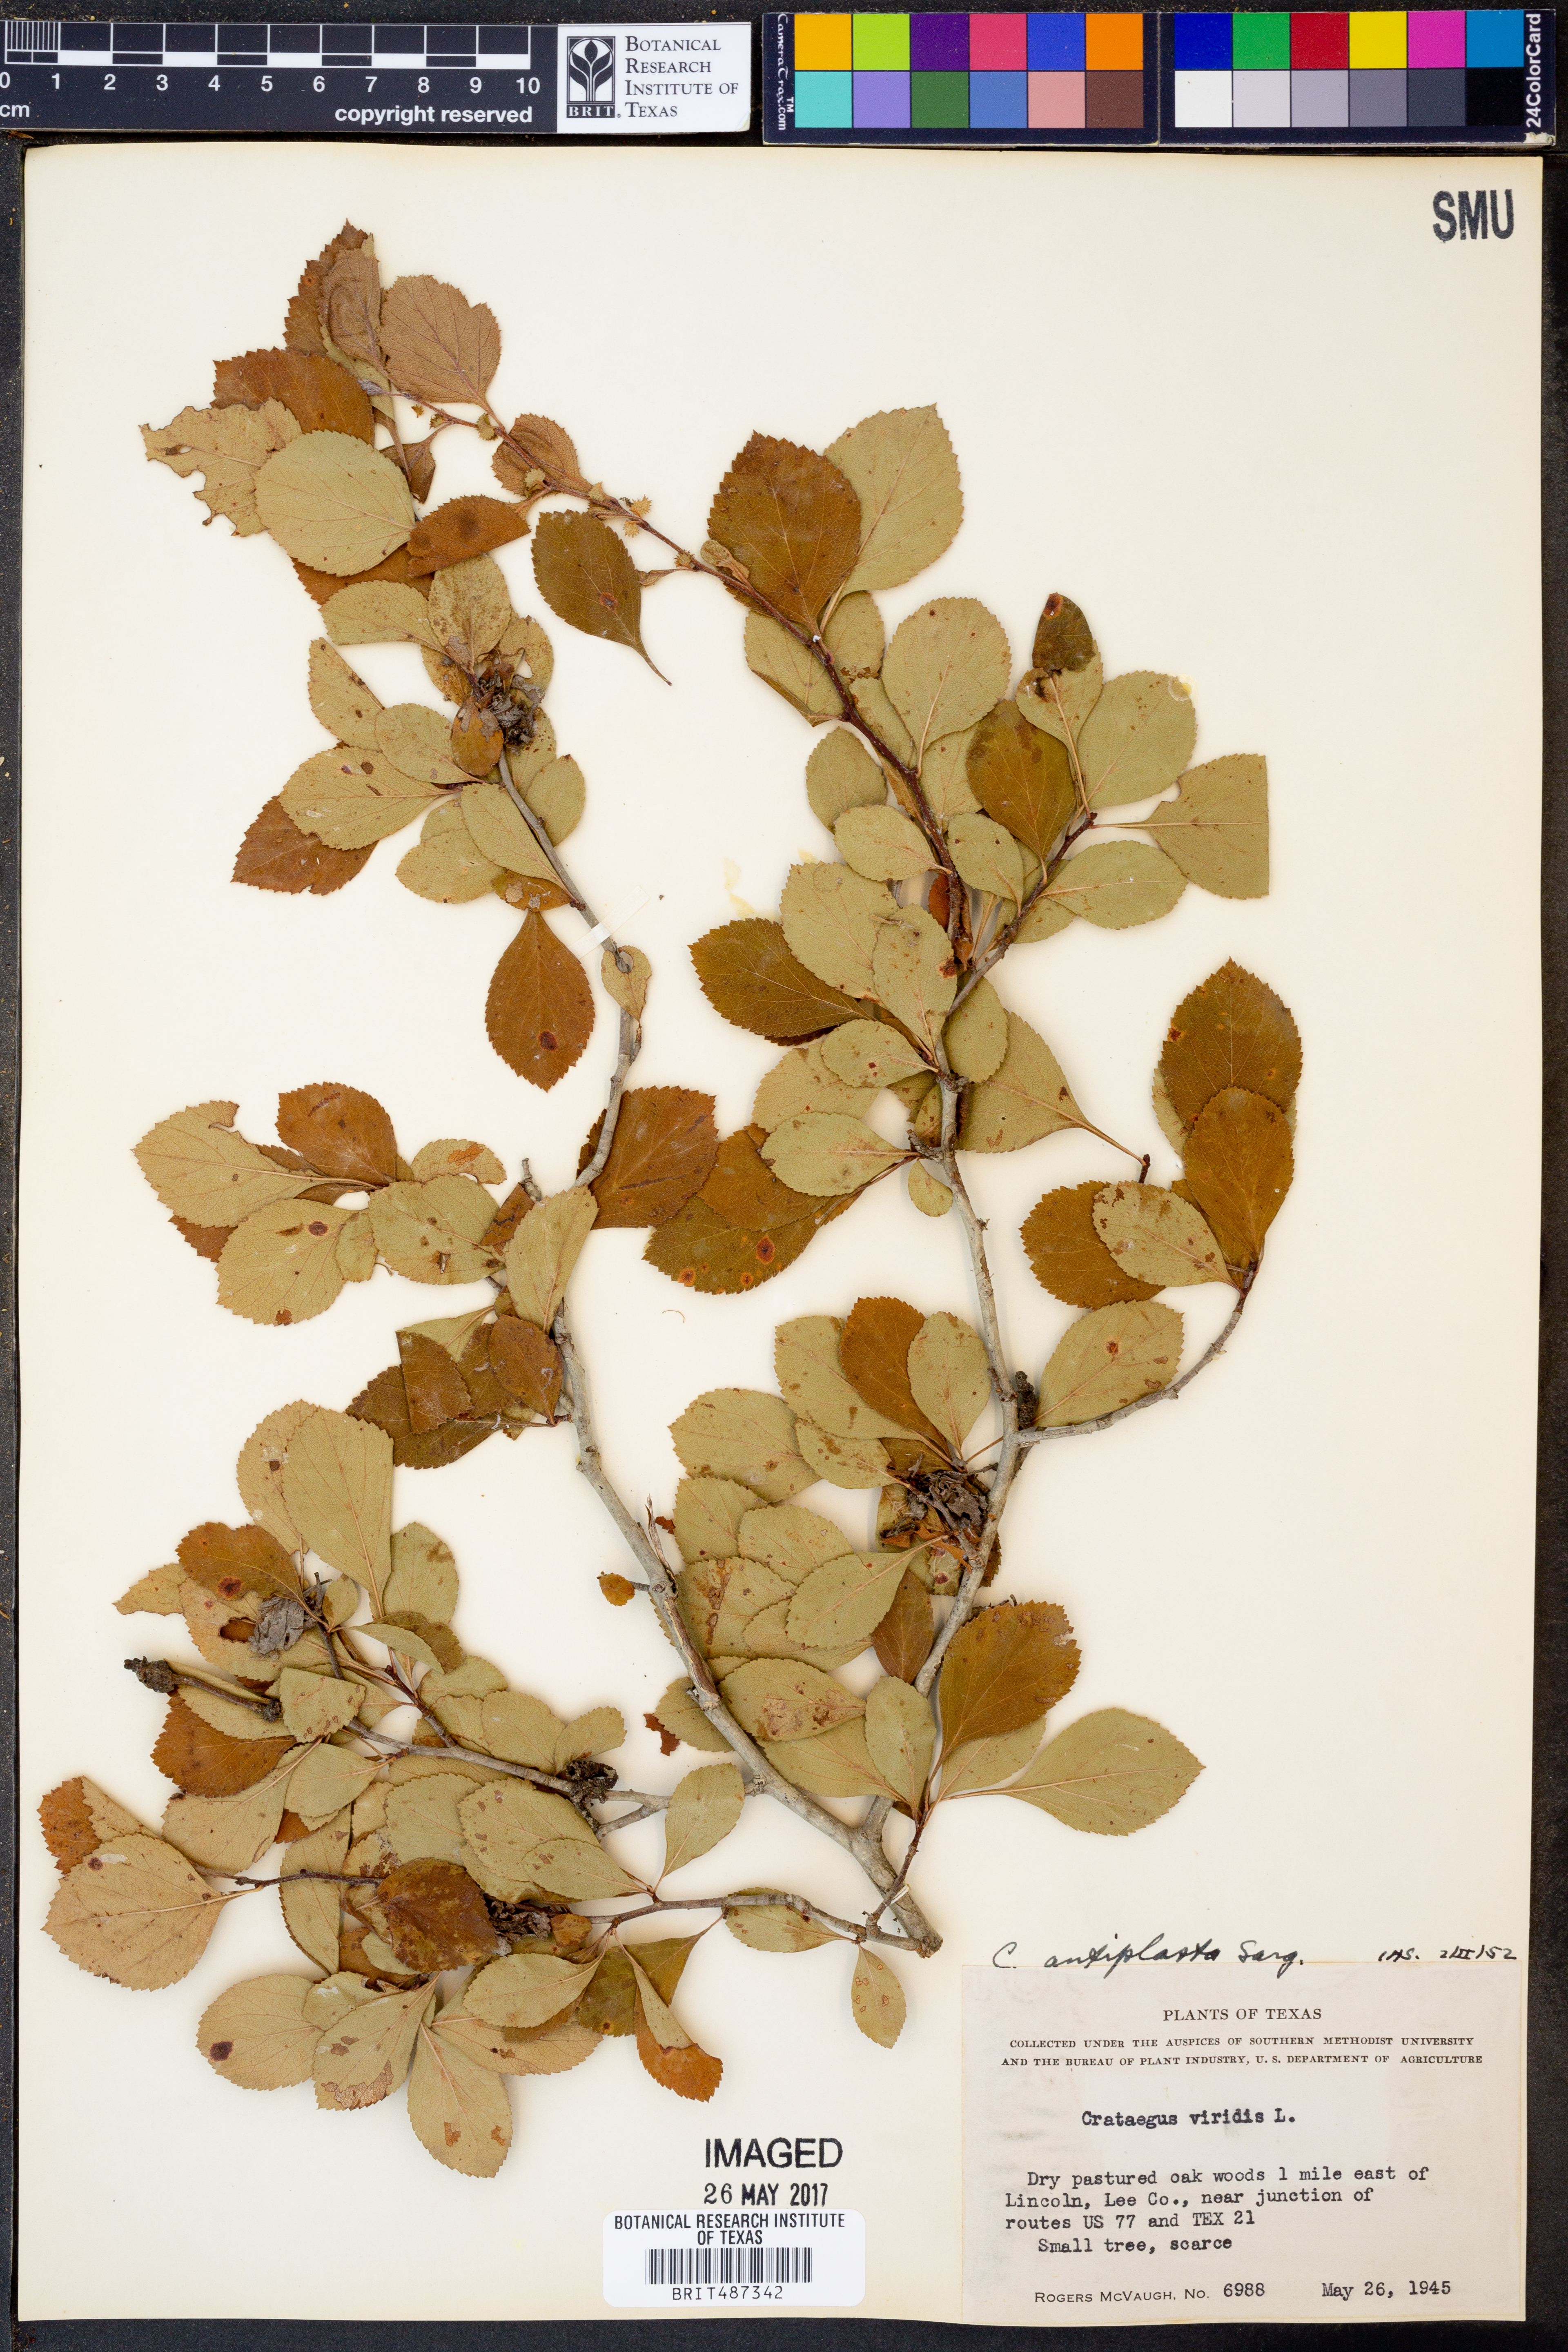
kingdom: Plantae
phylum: Tracheophyta
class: Magnoliopsida
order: Rosales
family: Rosaceae
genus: Crataegus
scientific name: Crataegus anamesa
